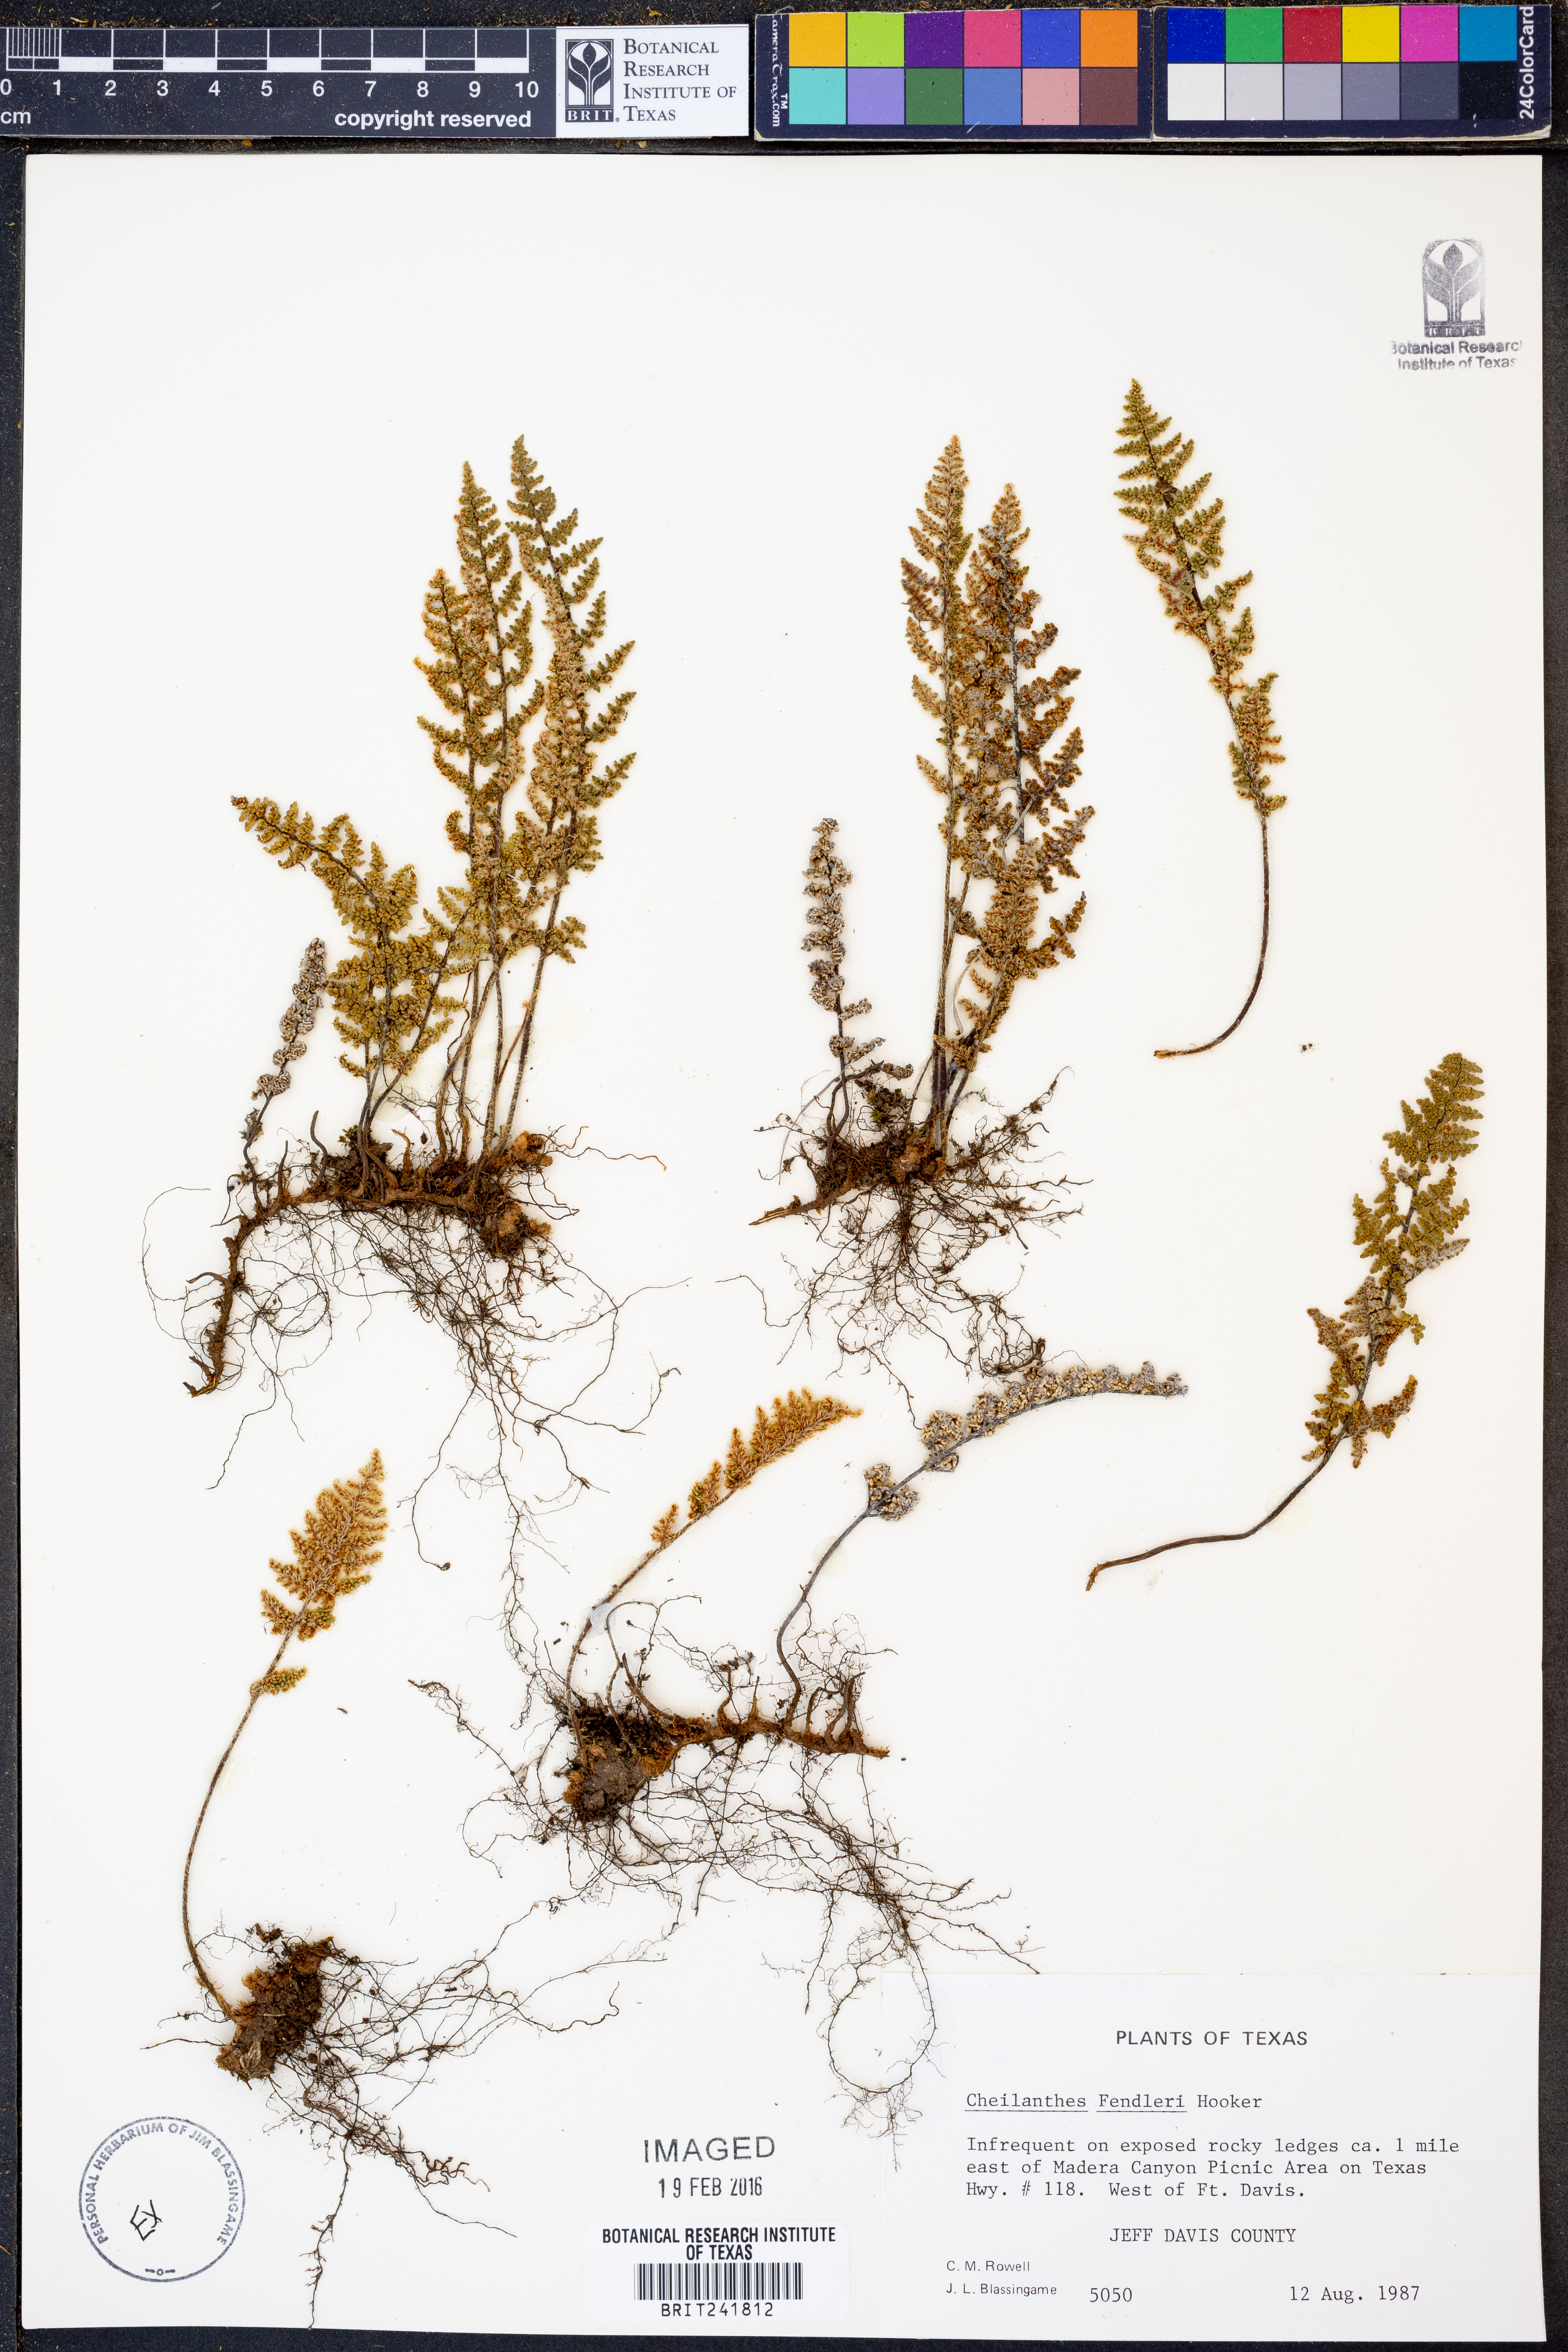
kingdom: Plantae
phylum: Tracheophyta
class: Polypodiopsida
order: Polypodiales
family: Pteridaceae
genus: Myriopteris
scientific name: Myriopteris fendleri
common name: Fendler's lip fern
